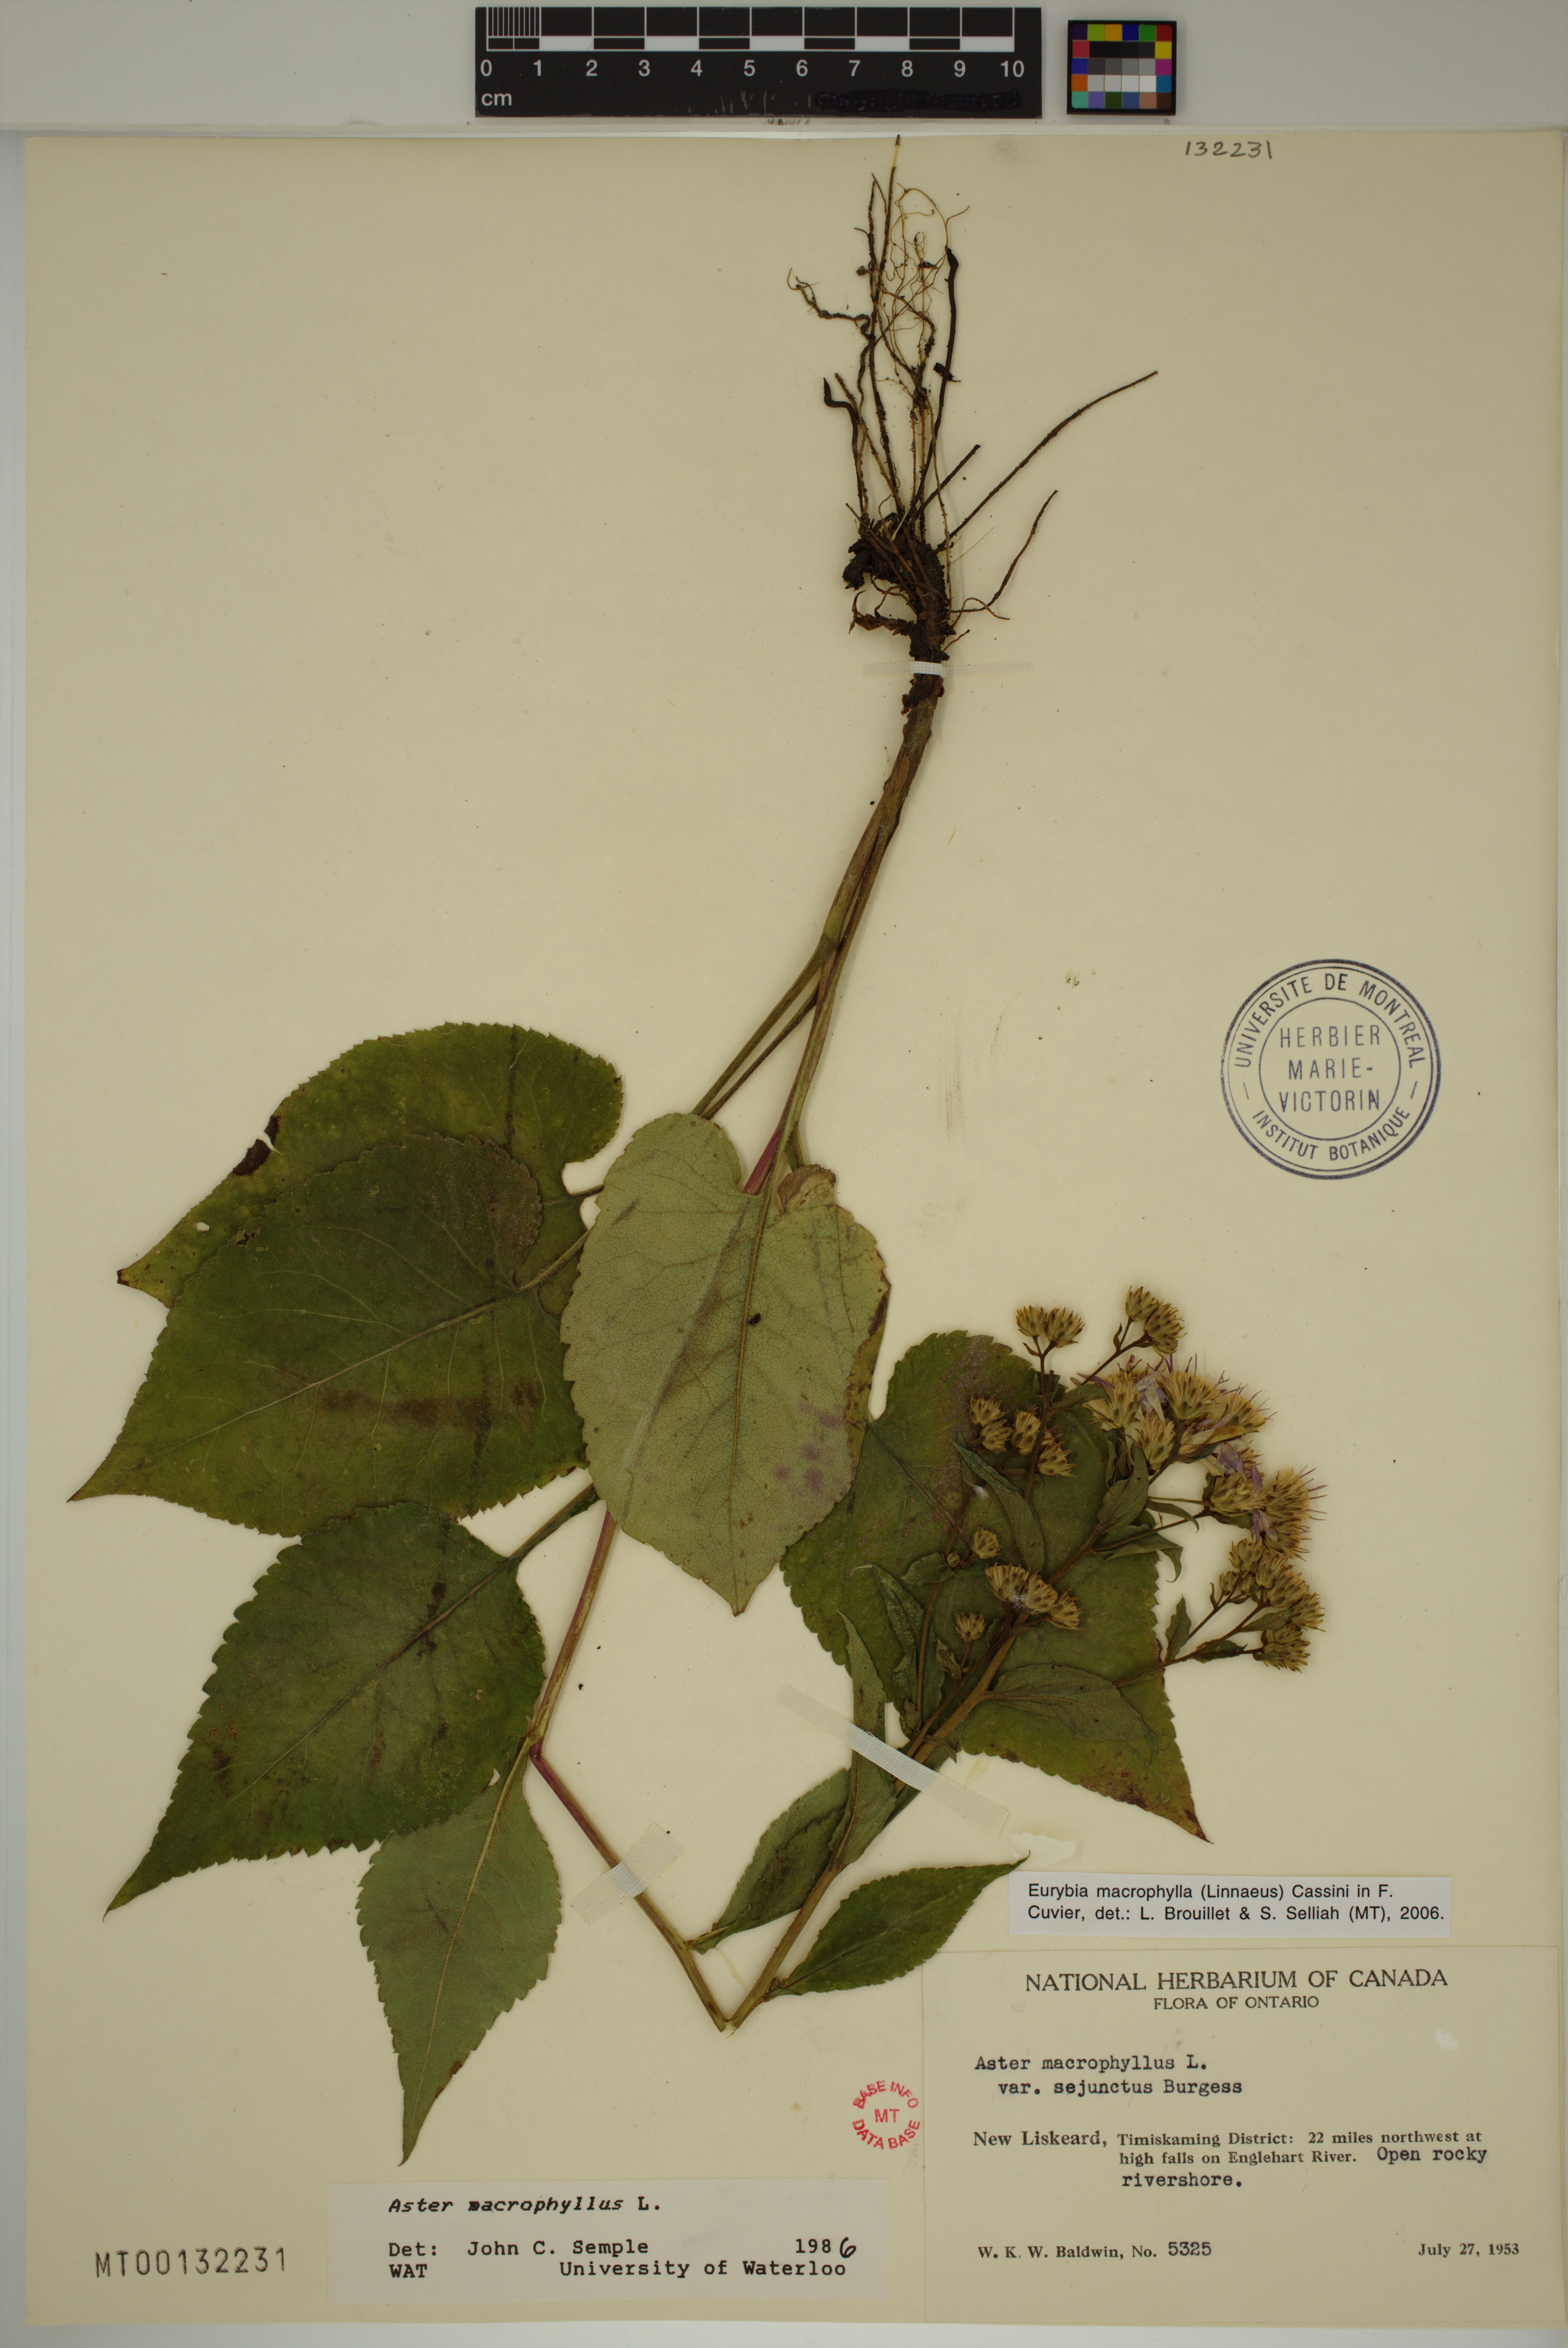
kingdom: Plantae
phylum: Tracheophyta
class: Magnoliopsida
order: Asterales
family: Asteraceae
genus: Eurybia
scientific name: Eurybia macrophylla
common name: Big-leaved aster
